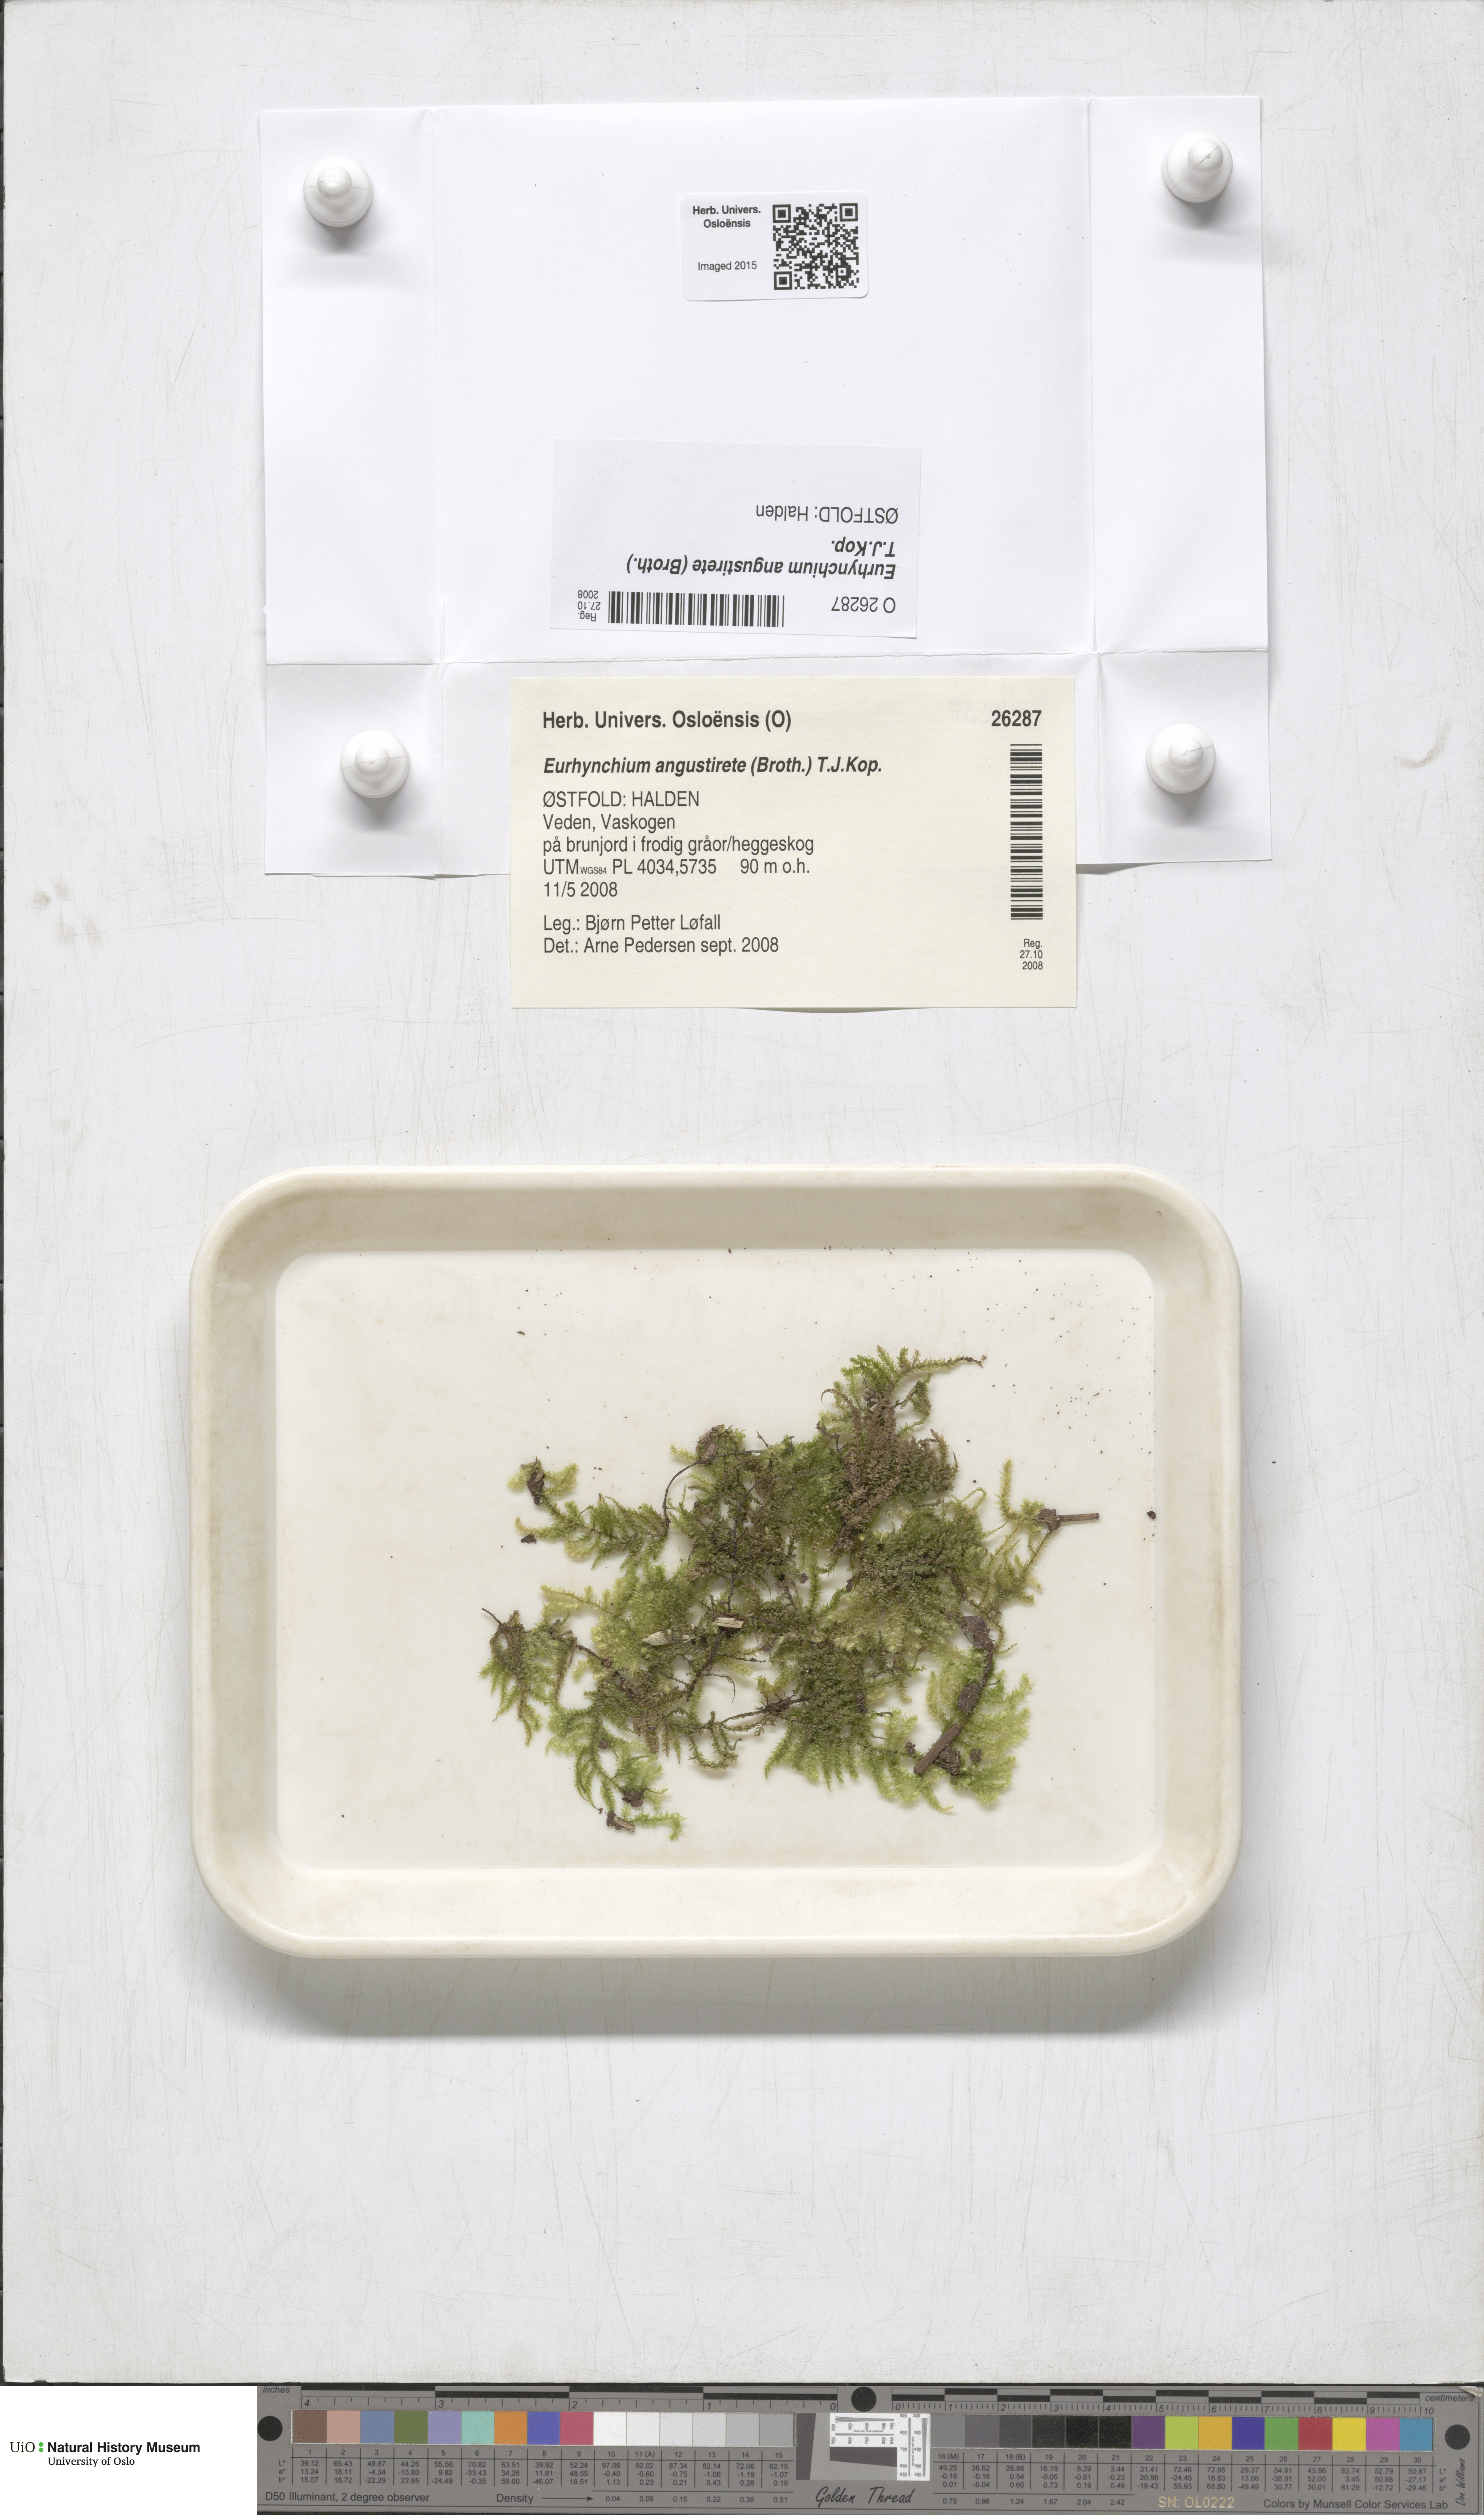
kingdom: Plantae
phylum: Bryophyta
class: Bryopsida
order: Hypnales
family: Brachytheciaceae
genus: Eurhynchium
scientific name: Eurhynchium angustirete
